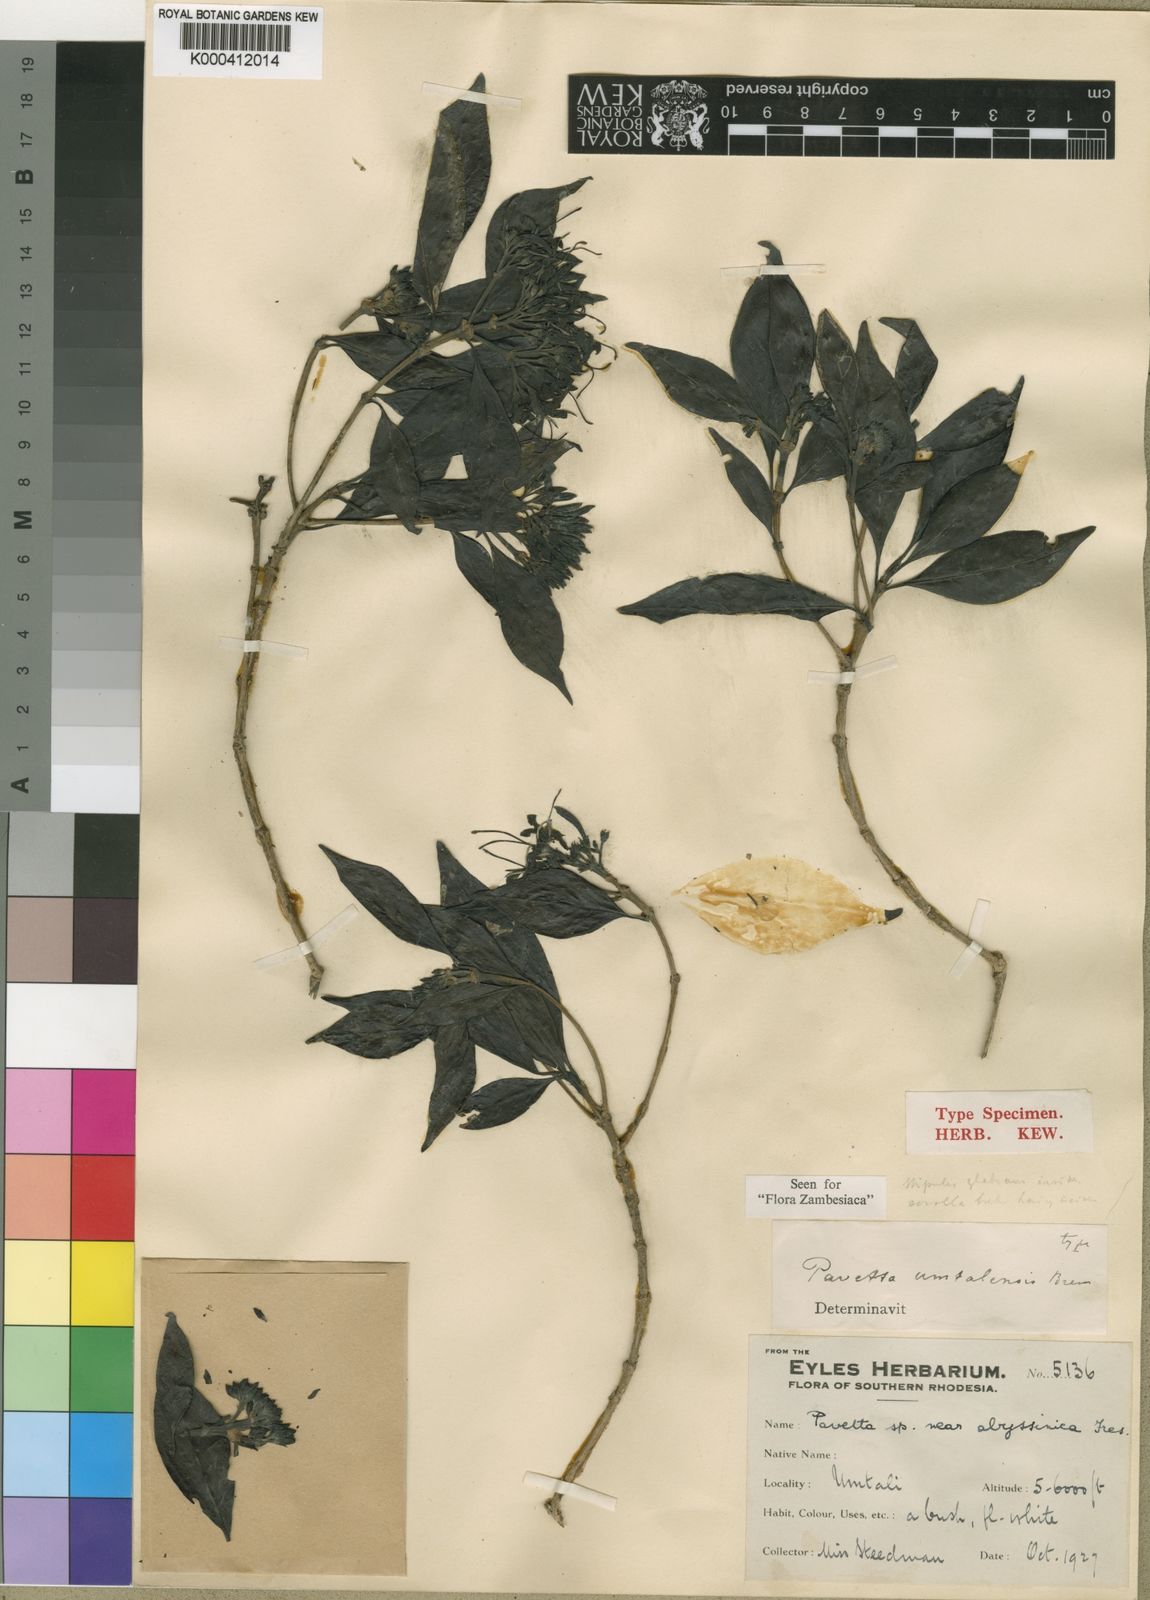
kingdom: Plantae
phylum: Tracheophyta
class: Magnoliopsida
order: Gentianales
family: Rubiaceae
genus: Pavetta
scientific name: Pavetta umtalensis
